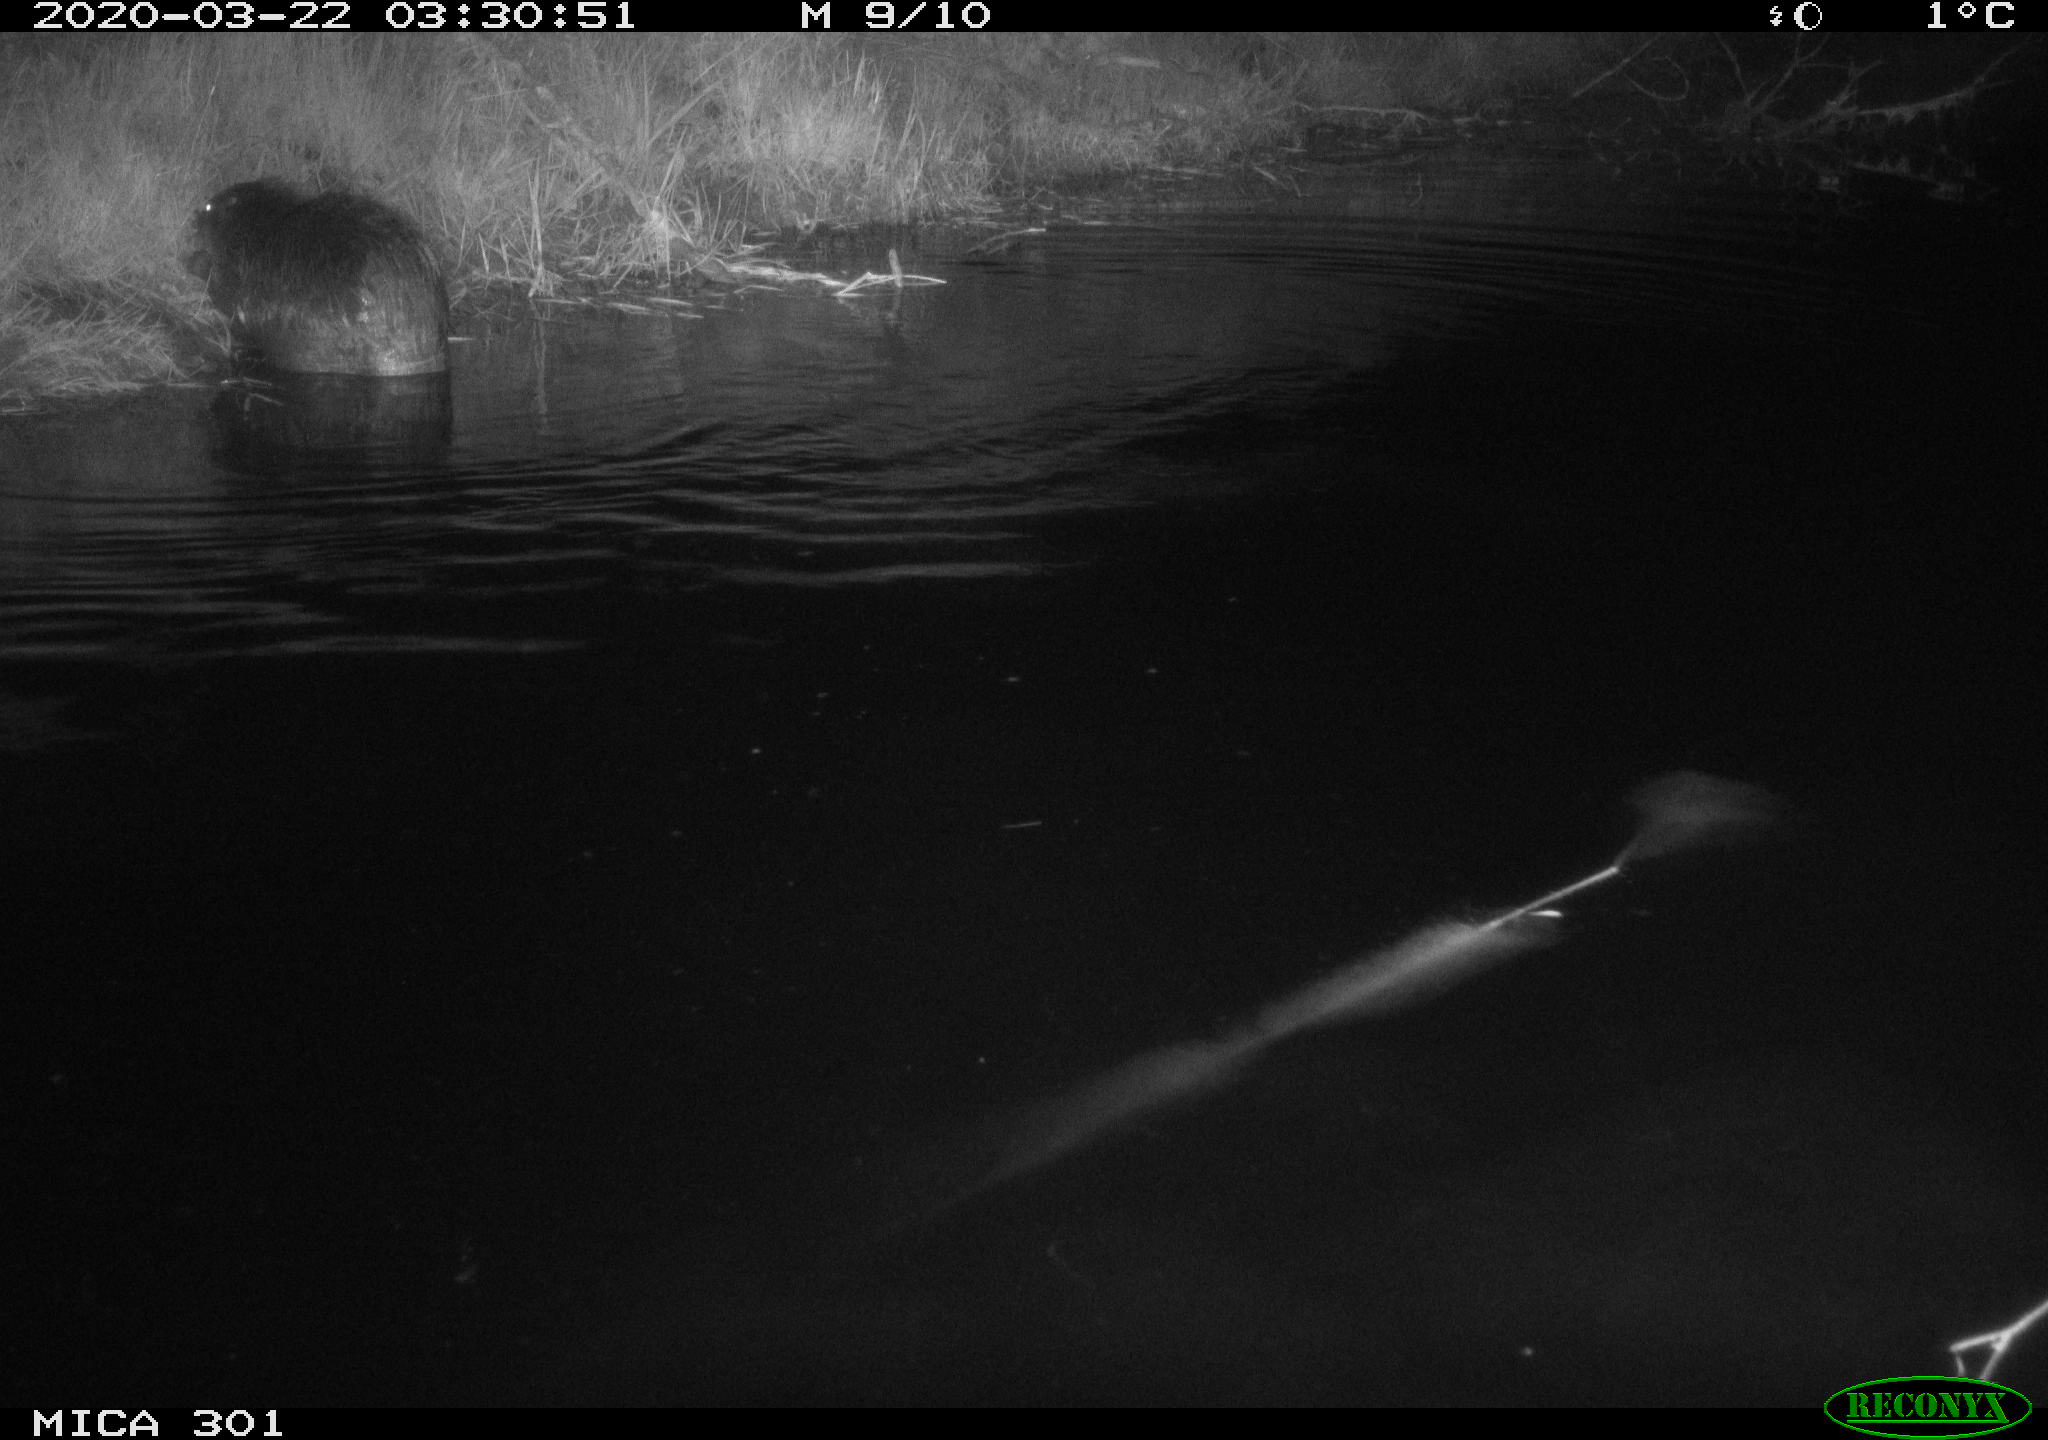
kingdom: Animalia
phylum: Chordata
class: Mammalia
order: Rodentia
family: Castoridae
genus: Castor
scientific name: Castor fiber
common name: Eurasian beaver
